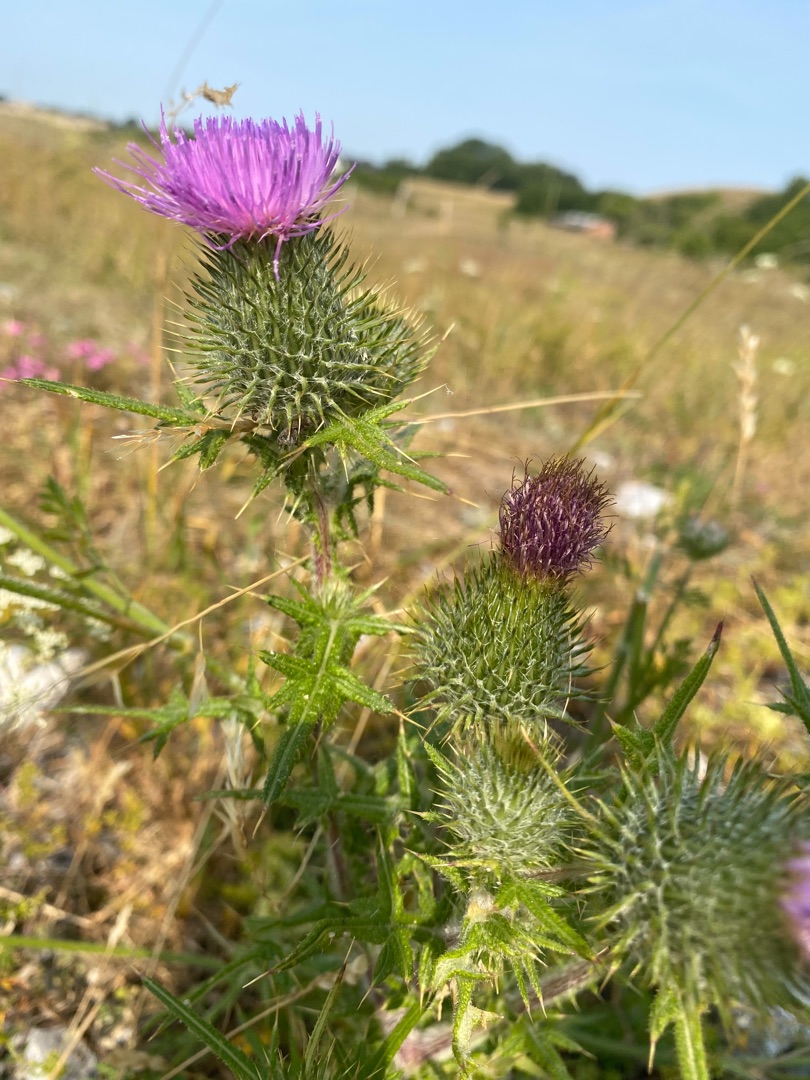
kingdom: Plantae
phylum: Tracheophyta
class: Magnoliopsida
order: Asterales
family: Asteraceae
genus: Cirsium
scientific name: Cirsium vulgare
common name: Horse-tidsel
